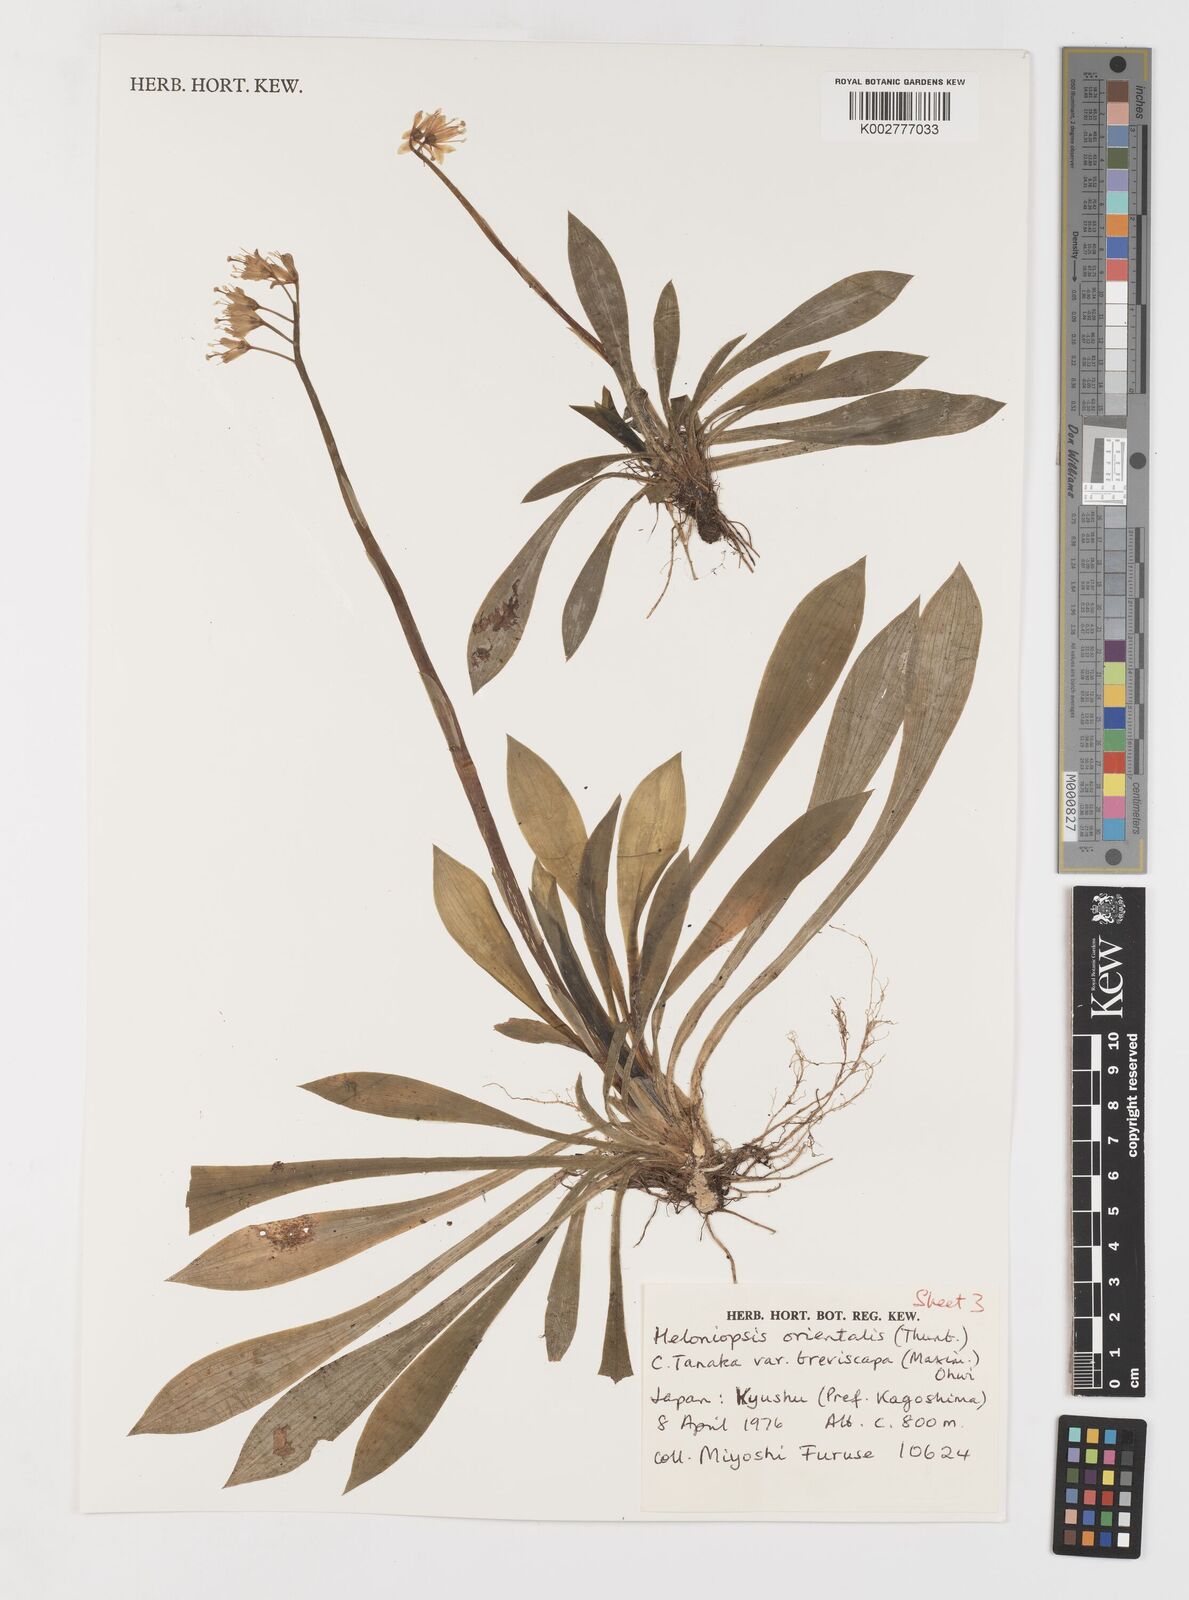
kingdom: Plantae
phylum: Tracheophyta
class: Liliopsida
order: Liliales
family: Melanthiaceae
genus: Helonias
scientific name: Helonias orientalis
